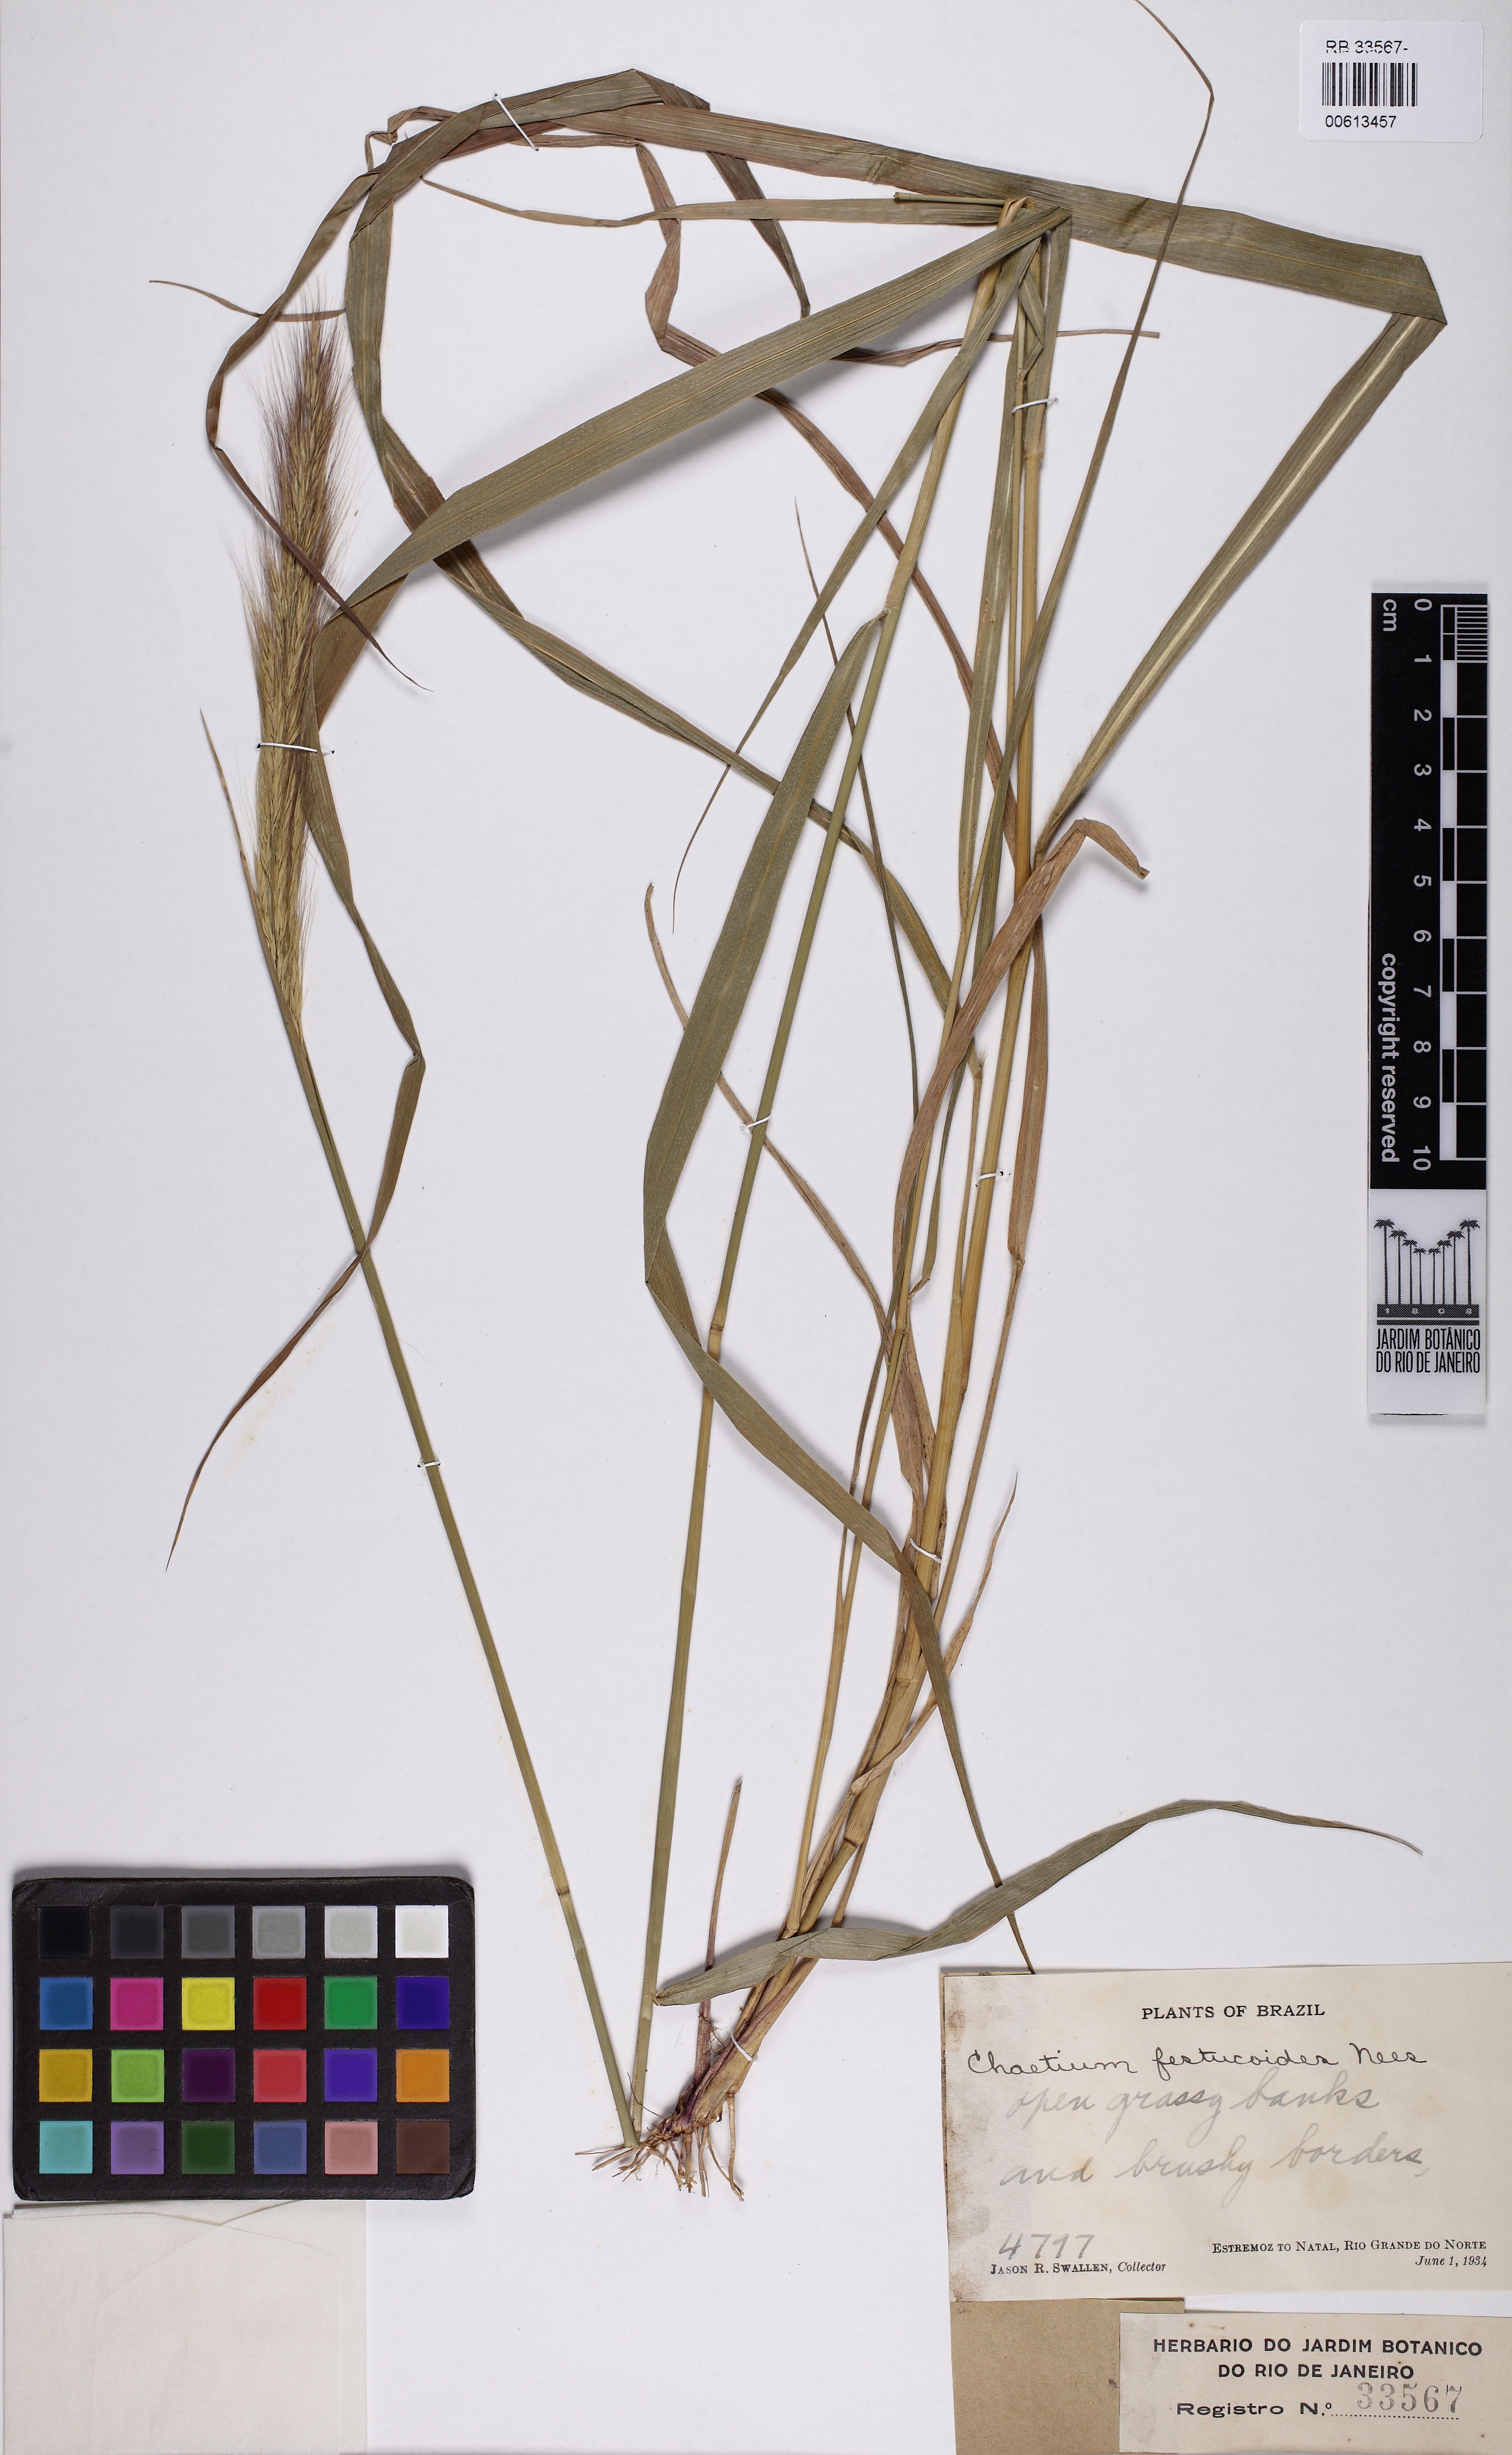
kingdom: Plantae
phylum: Tracheophyta
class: Liliopsida
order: Poales
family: Poaceae
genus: Chaetium
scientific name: Chaetium festucoides
